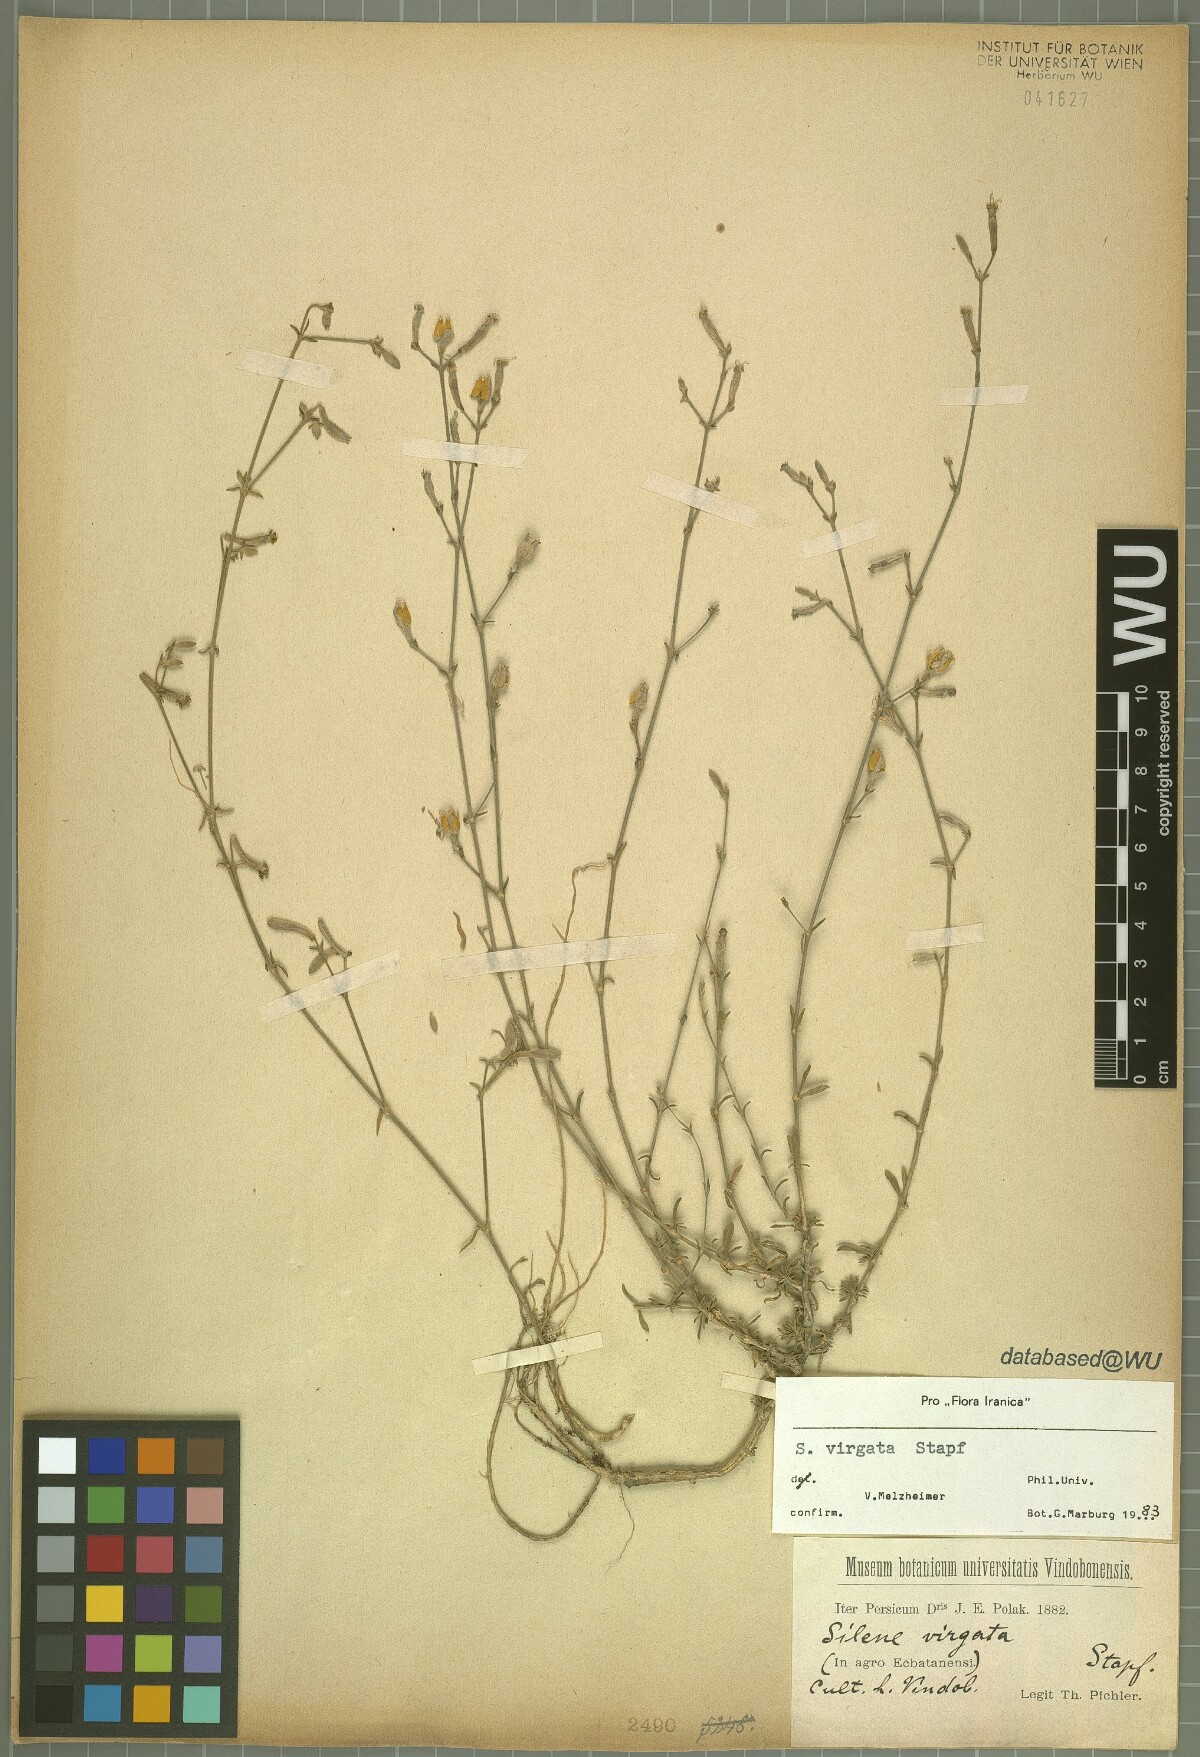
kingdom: Plantae
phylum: Tracheophyta
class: Magnoliopsida
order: Caryophyllales
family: Caryophyllaceae
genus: Silene
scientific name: Silene virgata
